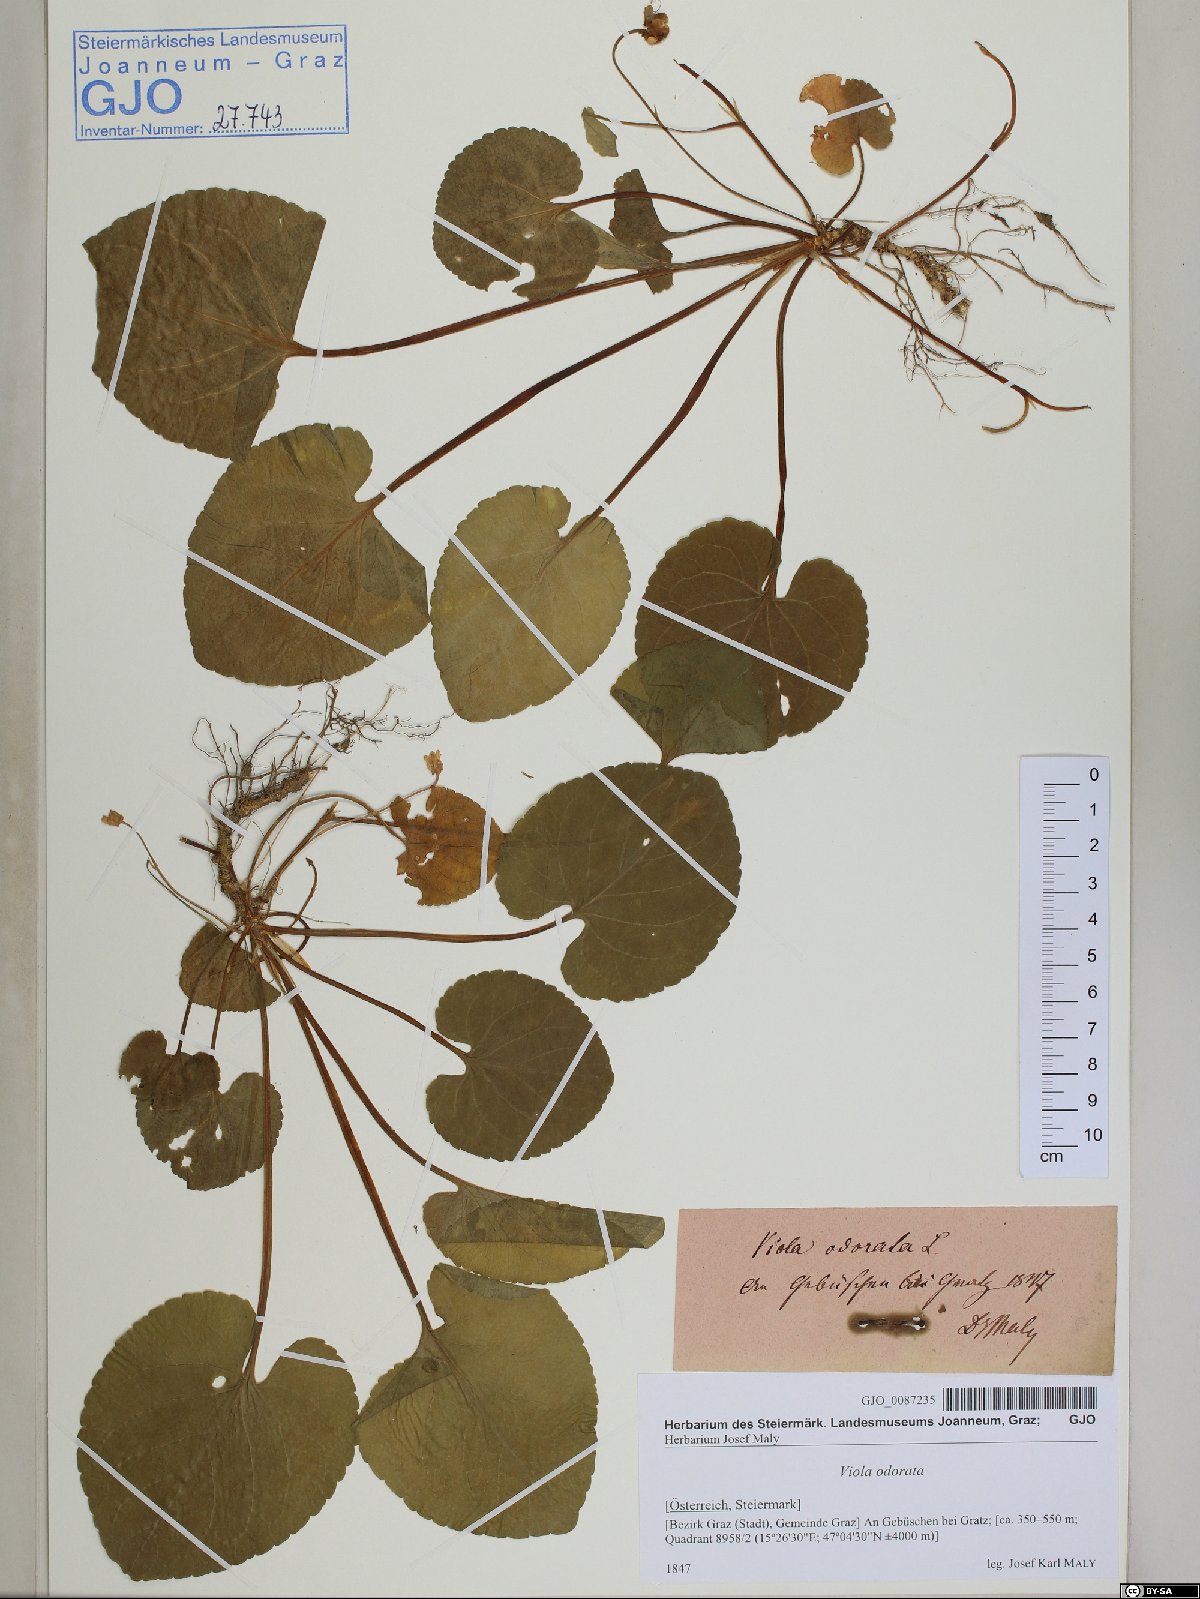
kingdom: Plantae
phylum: Tracheophyta
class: Magnoliopsida
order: Malpighiales
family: Violaceae
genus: Viola
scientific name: Viola odorata
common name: Sweet violet
